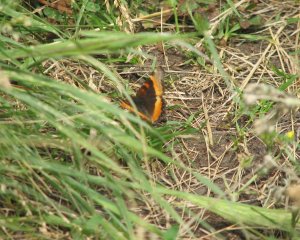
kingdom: Animalia
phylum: Arthropoda
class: Insecta
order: Lepidoptera
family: Nymphalidae
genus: Aglais
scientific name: Aglais milberti
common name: Milbert's Tortoiseshell
